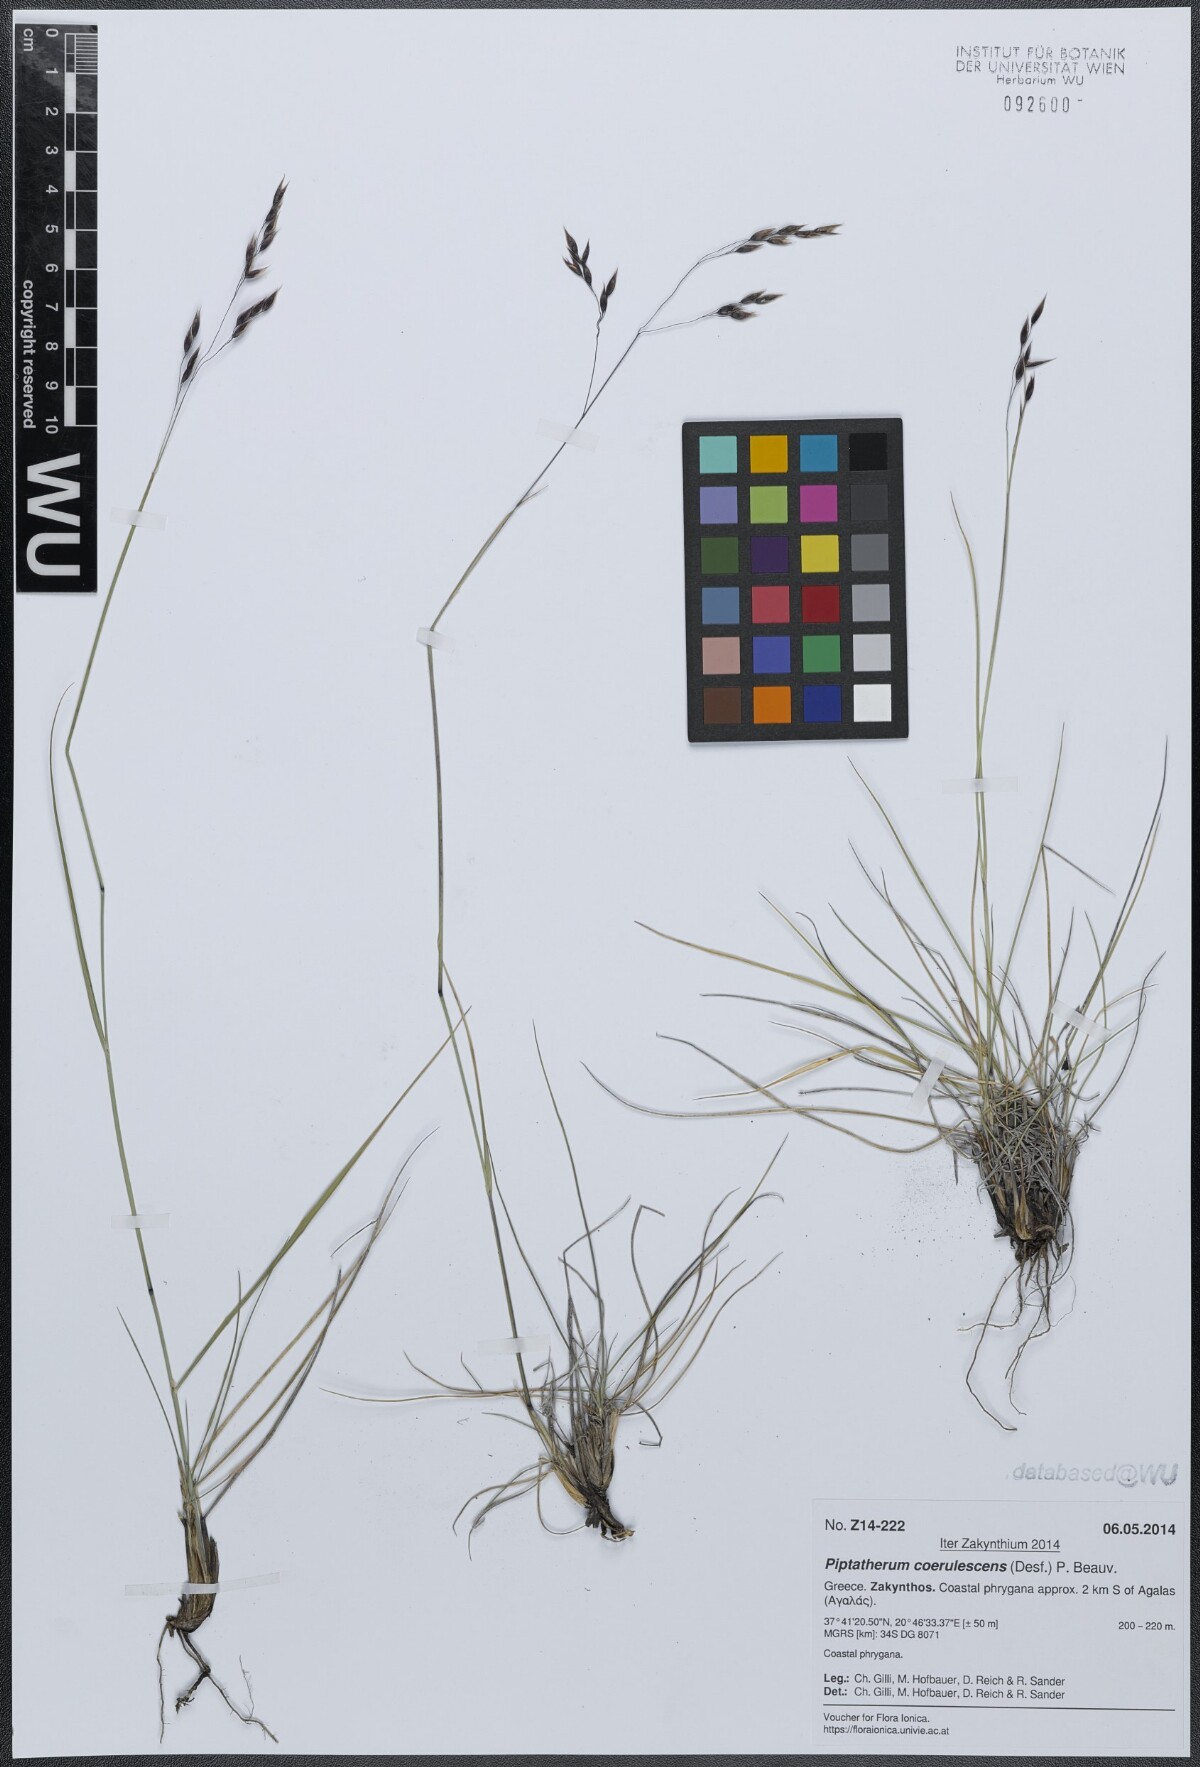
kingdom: Plantae
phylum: Tracheophyta
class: Liliopsida
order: Poales
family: Poaceae
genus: Piptatherum
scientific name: Piptatherum coerulescens
